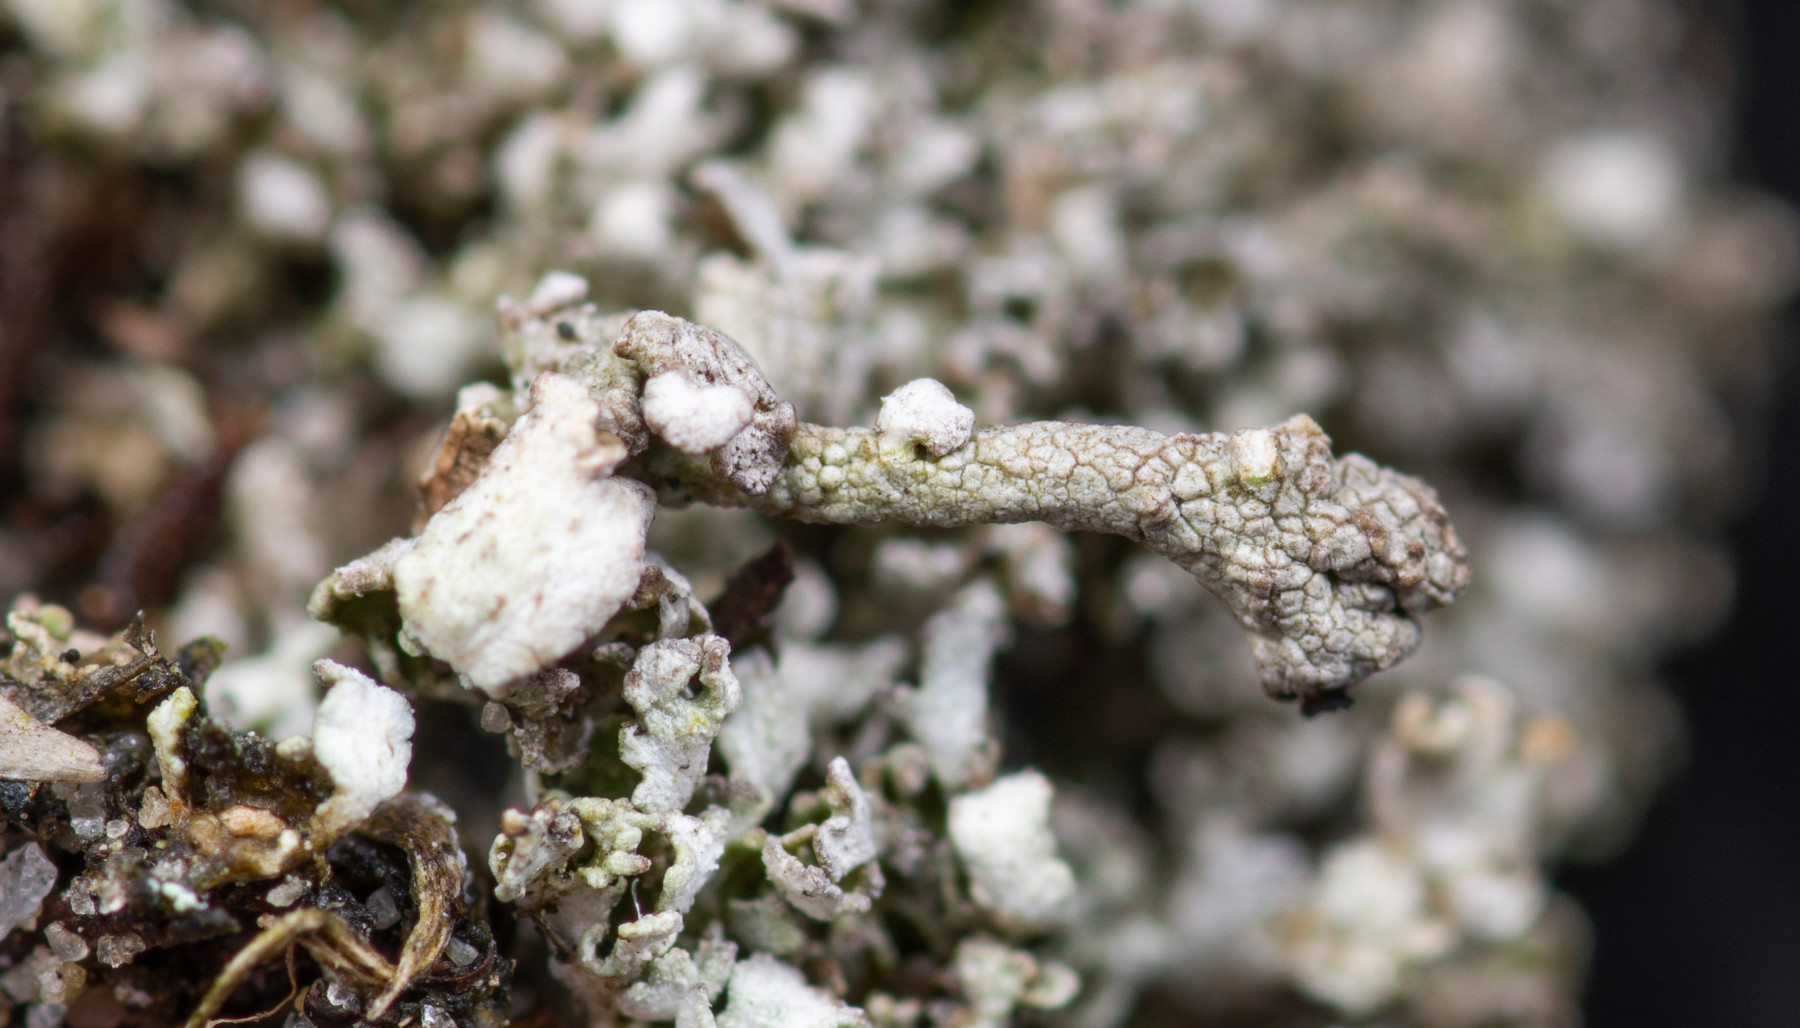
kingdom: Fungi
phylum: Ascomycota
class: Lecanoromycetes
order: Lecanorales
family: Cladoniaceae
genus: Cladonia
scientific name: Cladonia
